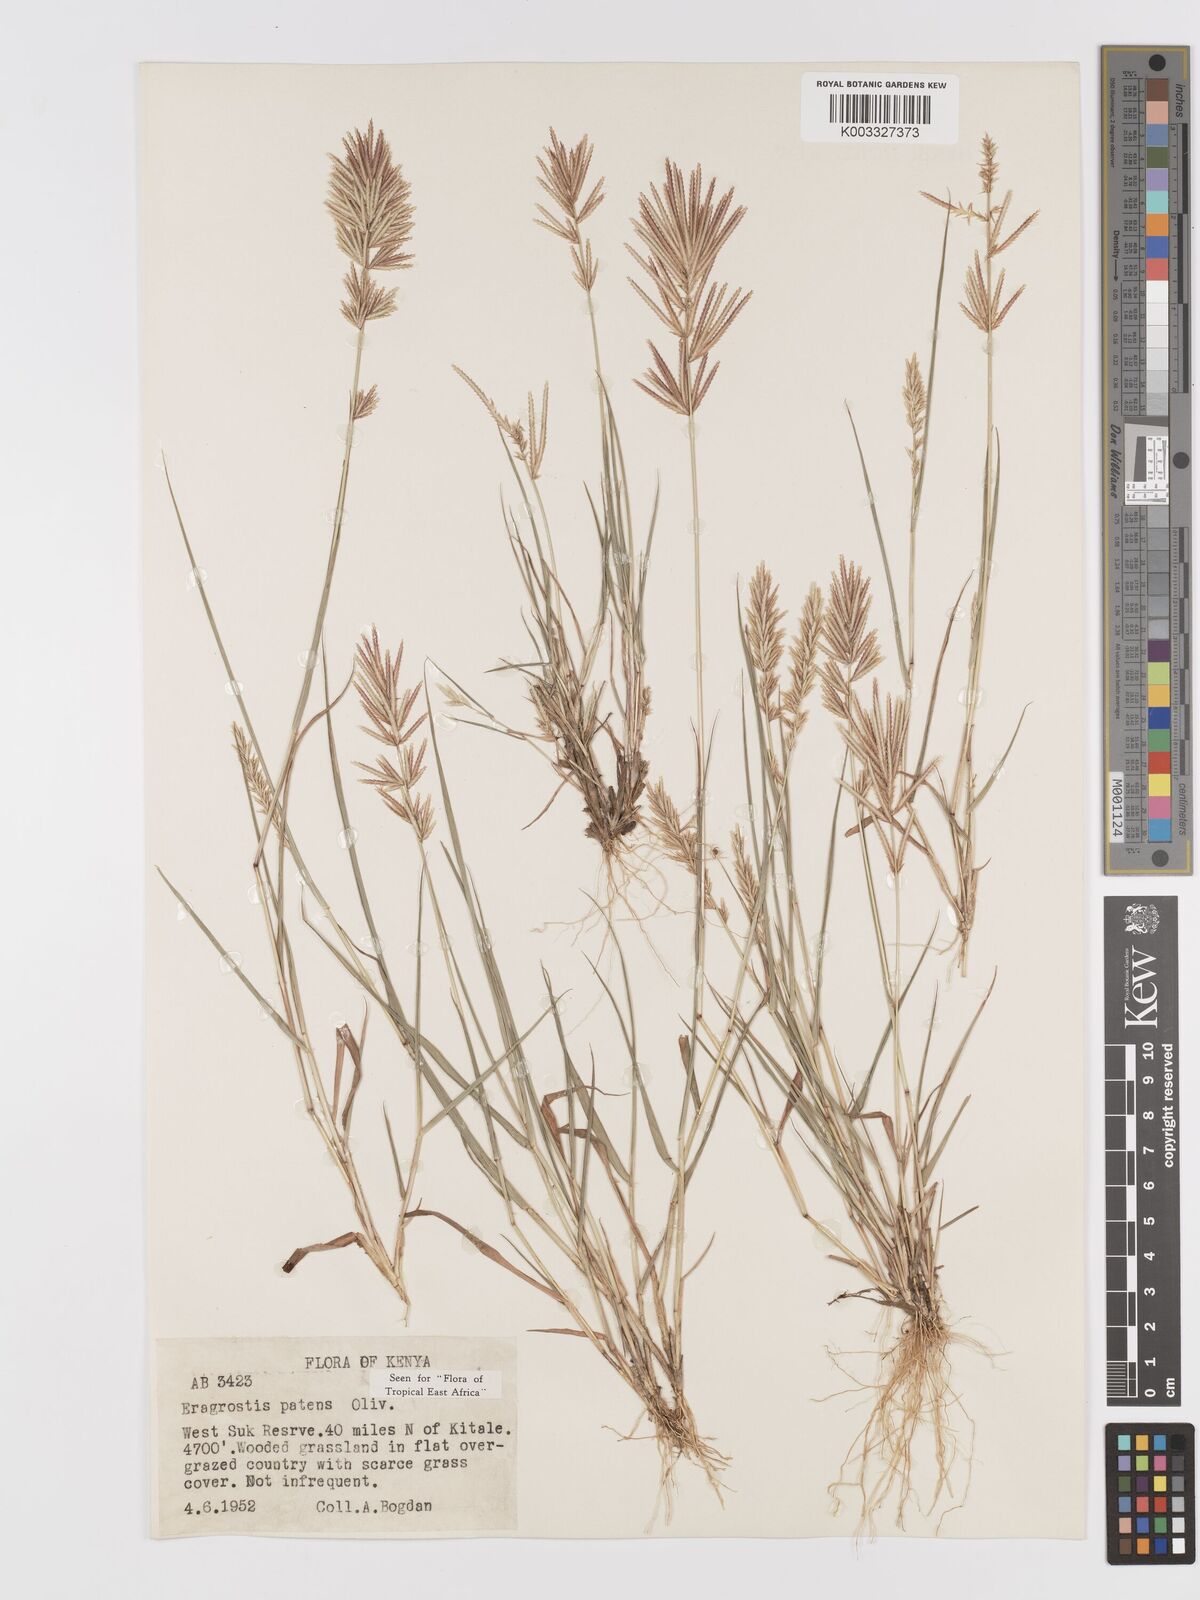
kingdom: Plantae
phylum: Tracheophyta
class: Liliopsida
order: Poales
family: Poaceae
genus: Eragrostis
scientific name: Eragrostis patens
